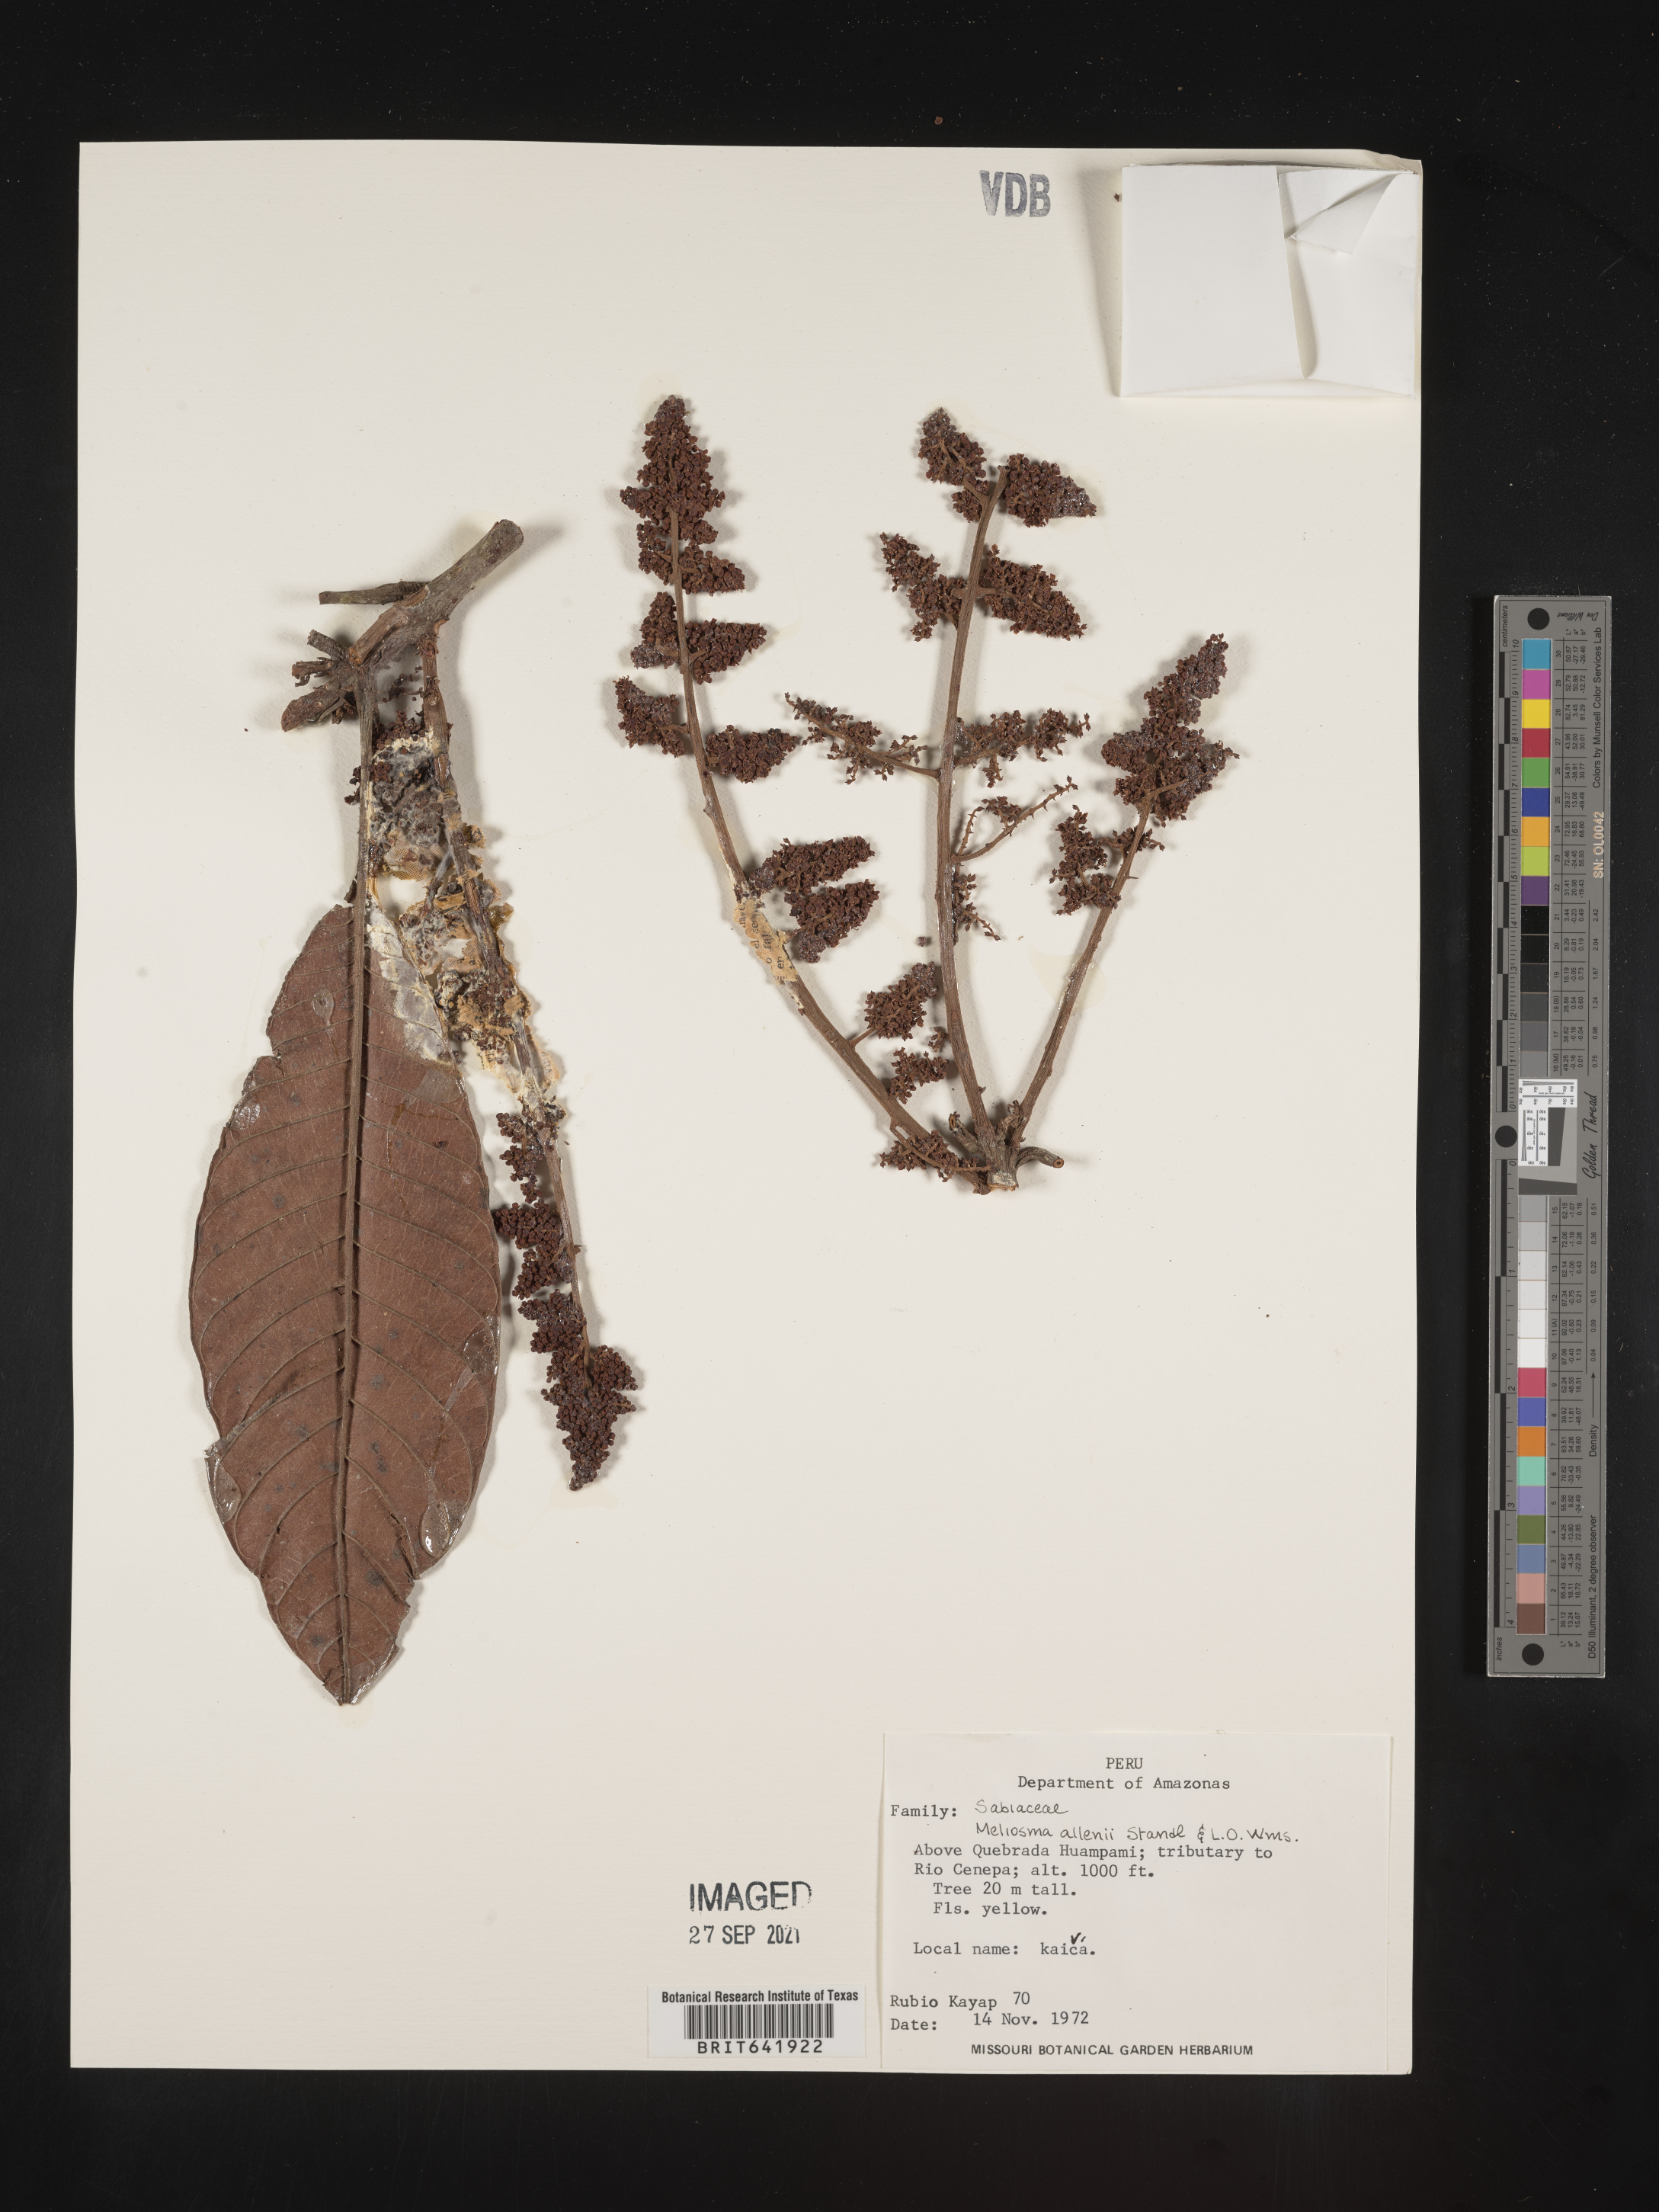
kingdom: Plantae
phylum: Tracheophyta
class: Magnoliopsida
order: Proteales
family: Sabiaceae
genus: Meliosma
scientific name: Meliosma
